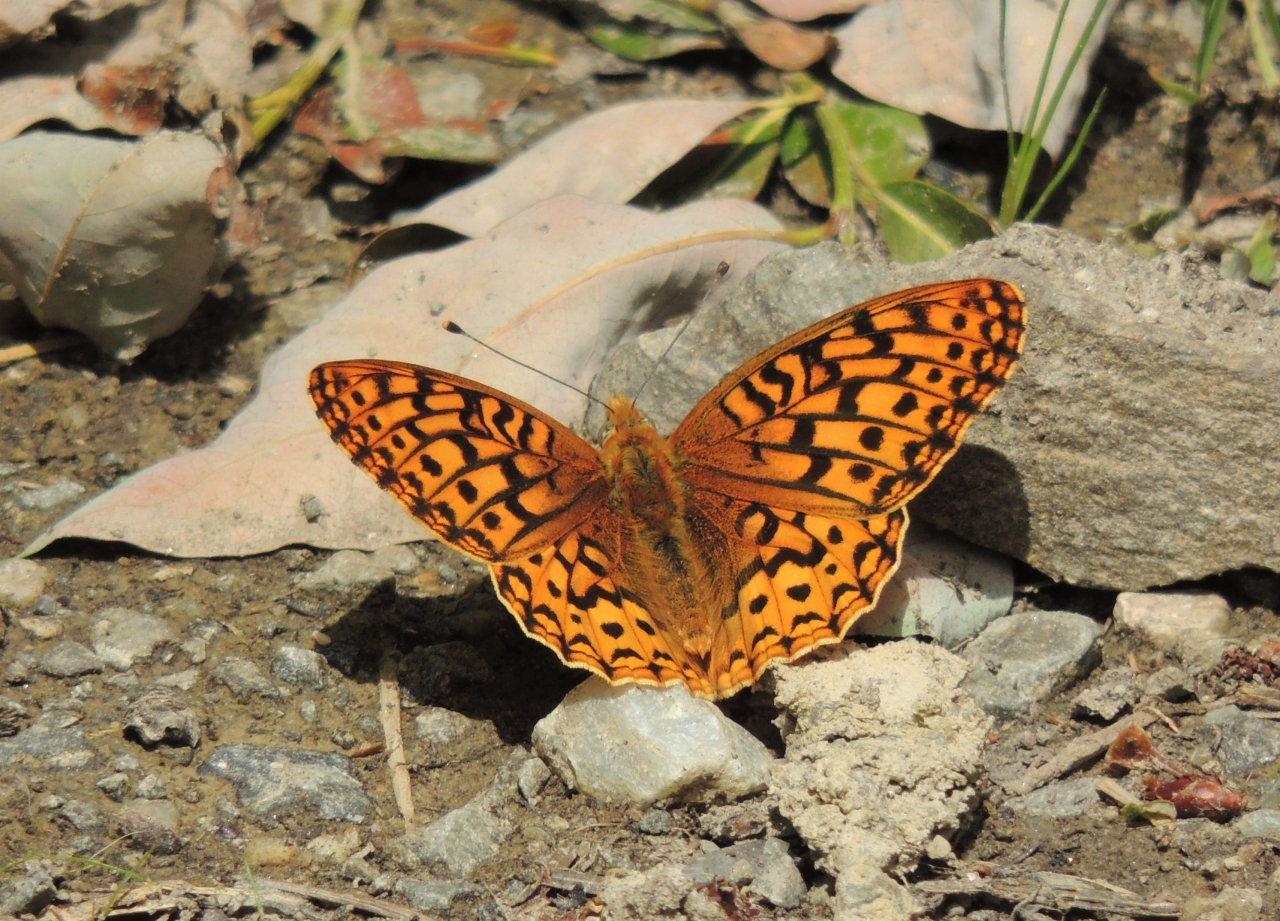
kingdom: Animalia
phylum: Arthropoda
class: Insecta
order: Lepidoptera
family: Nymphalidae
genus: Speyeria
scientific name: Speyeria zerene
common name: Zerene Fritillary
